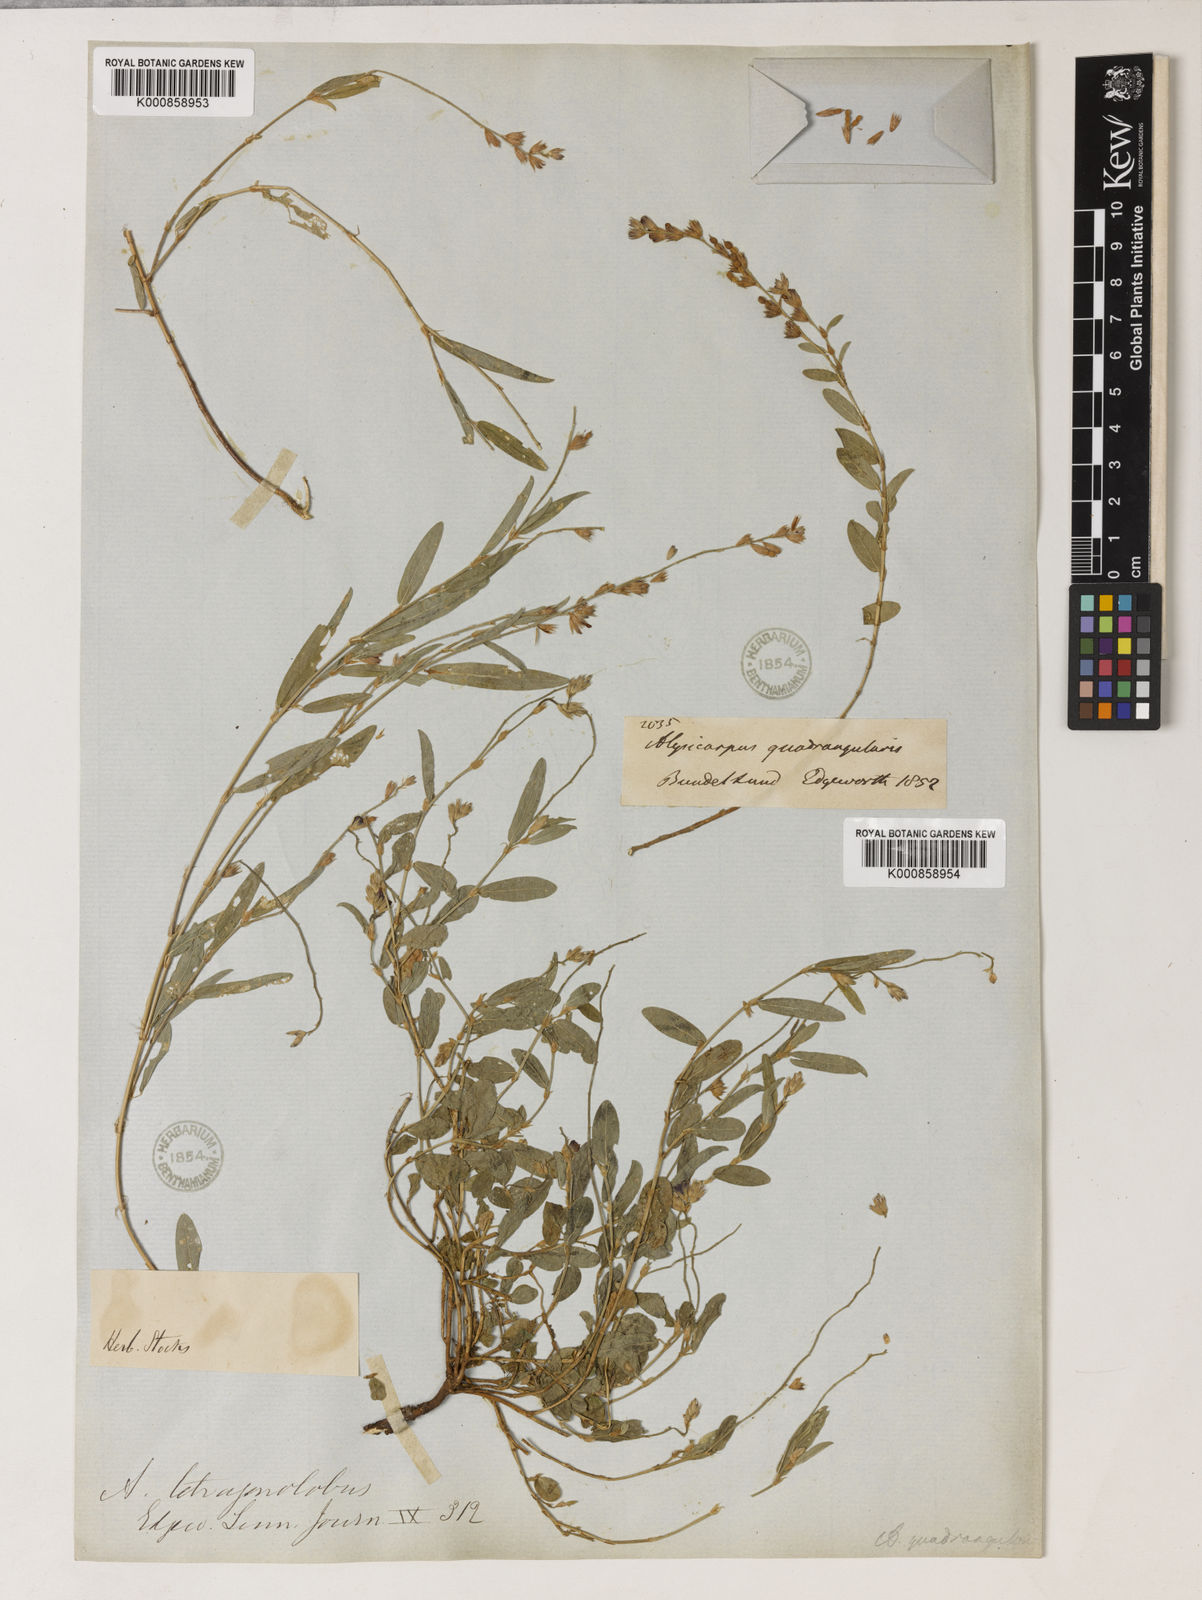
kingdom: Plantae
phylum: Tracheophyta
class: Magnoliopsida
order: Fabales
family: Fabaceae
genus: Alysicarpus
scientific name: Alysicarpus
